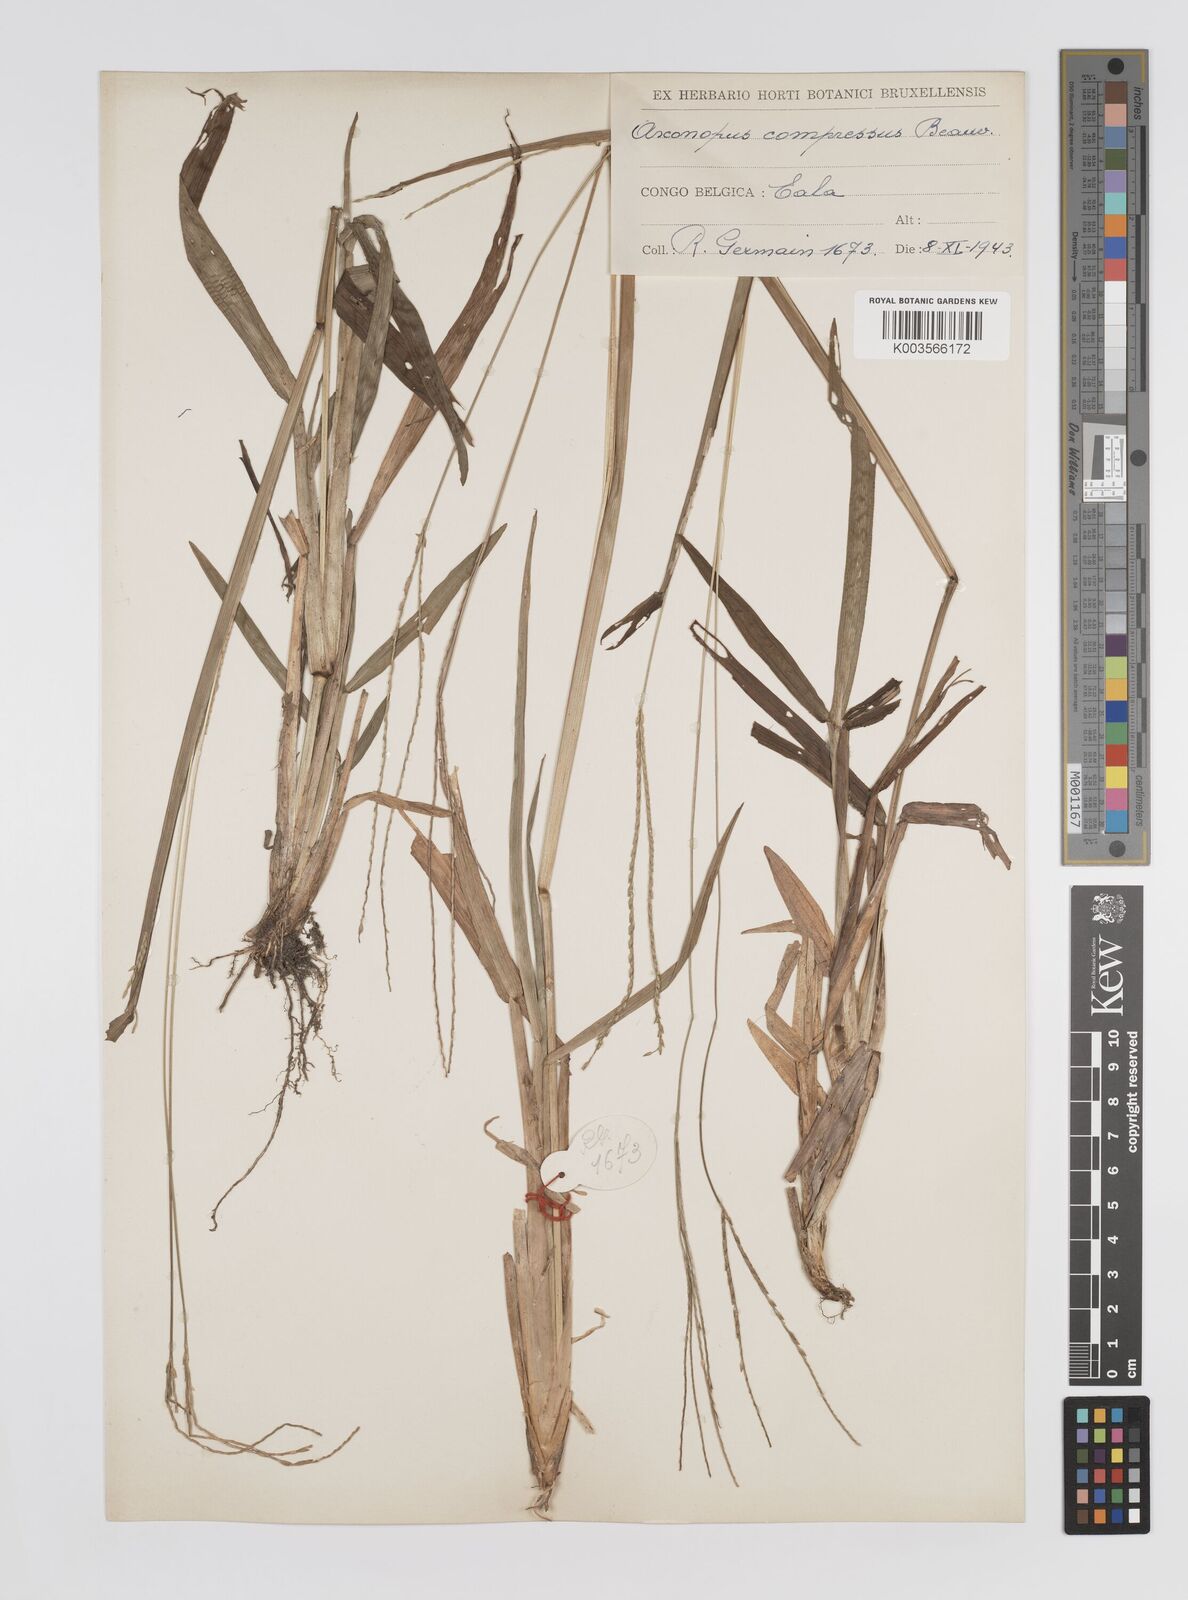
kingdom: Plantae
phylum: Tracheophyta
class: Liliopsida
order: Poales
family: Poaceae
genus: Axonopus
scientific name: Axonopus flexuosus
